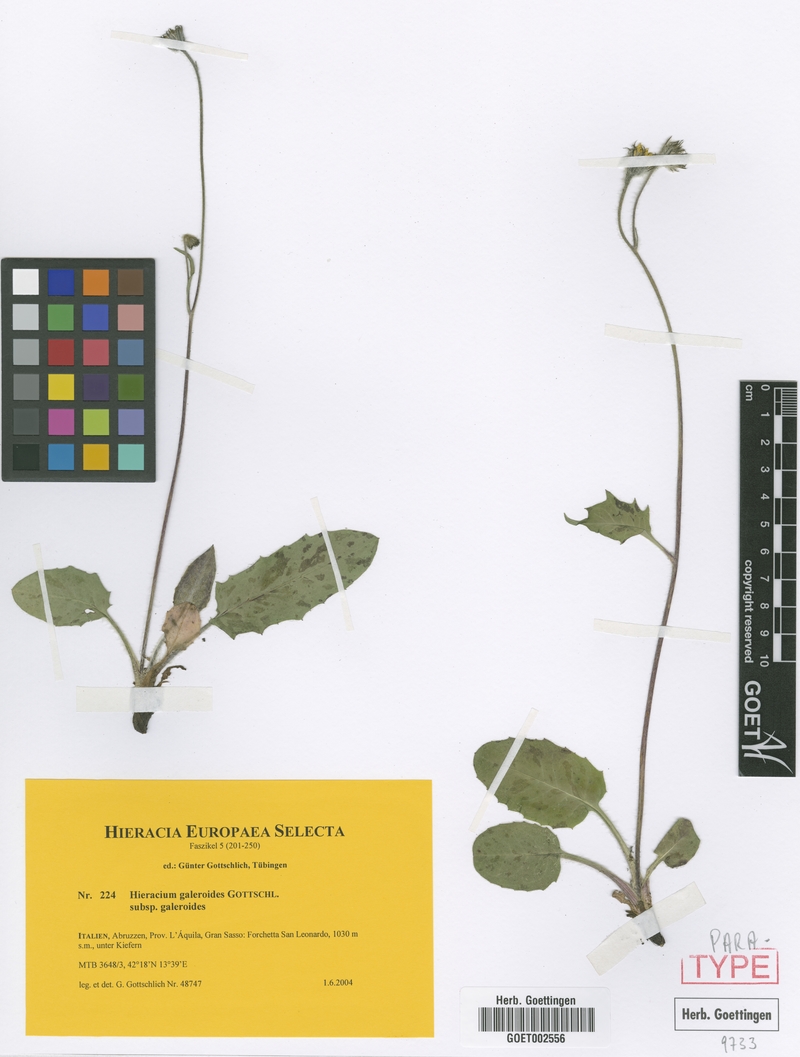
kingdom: Plantae
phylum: Tracheophyta
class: Magnoliopsida
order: Asterales
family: Asteraceae
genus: Hieracium
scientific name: Hieracium galeroides
